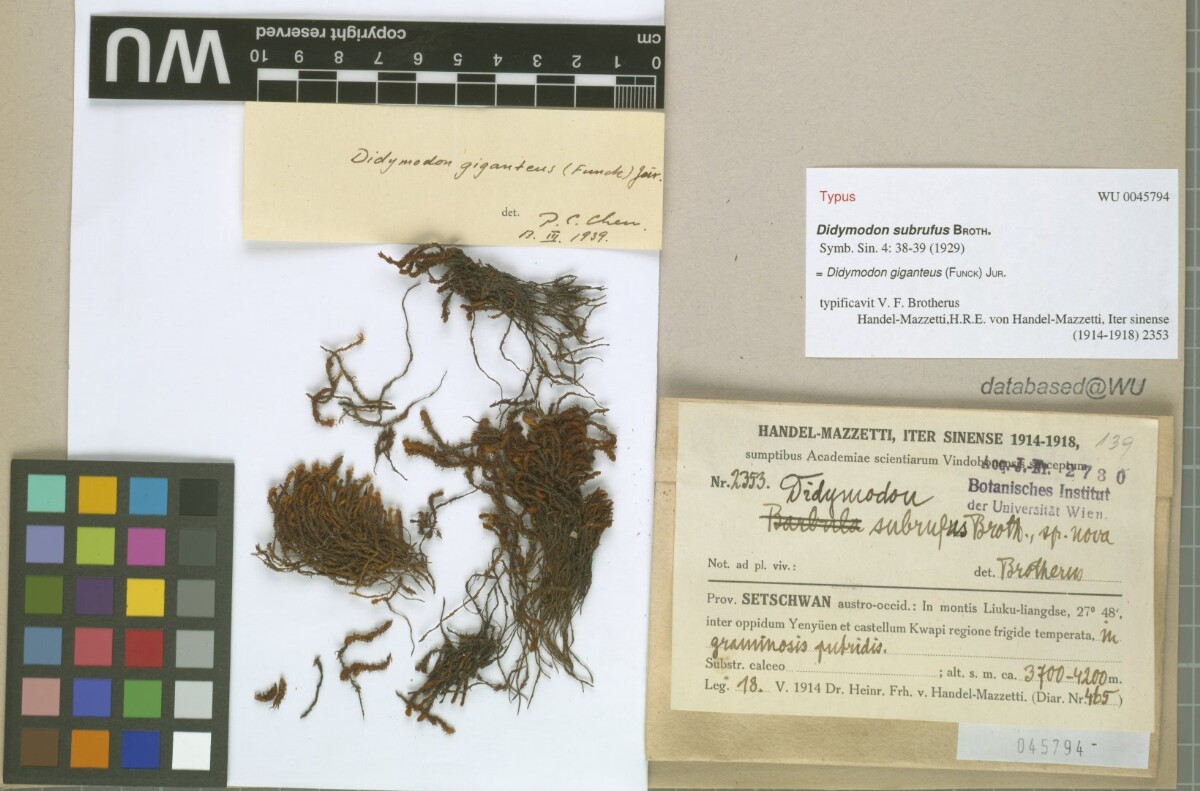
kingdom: Plantae
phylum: Bryophyta
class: Bryopsida
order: Pottiales
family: Pottiaceae
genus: Geheebia
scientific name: Geheebia gigantea
